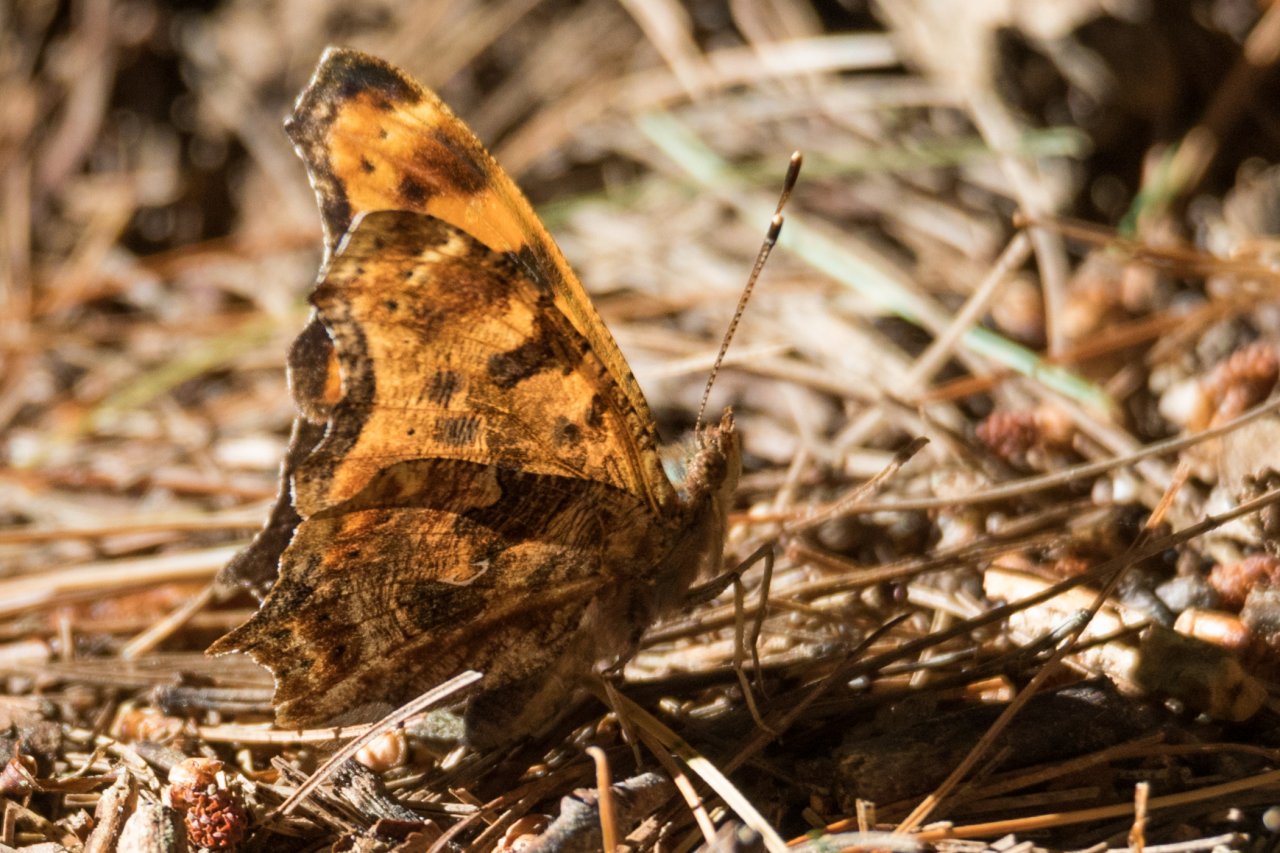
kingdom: Animalia
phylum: Arthropoda
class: Insecta
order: Lepidoptera
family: Nymphalidae
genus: Polygonia
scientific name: Polygonia comma
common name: Eastern Comma
